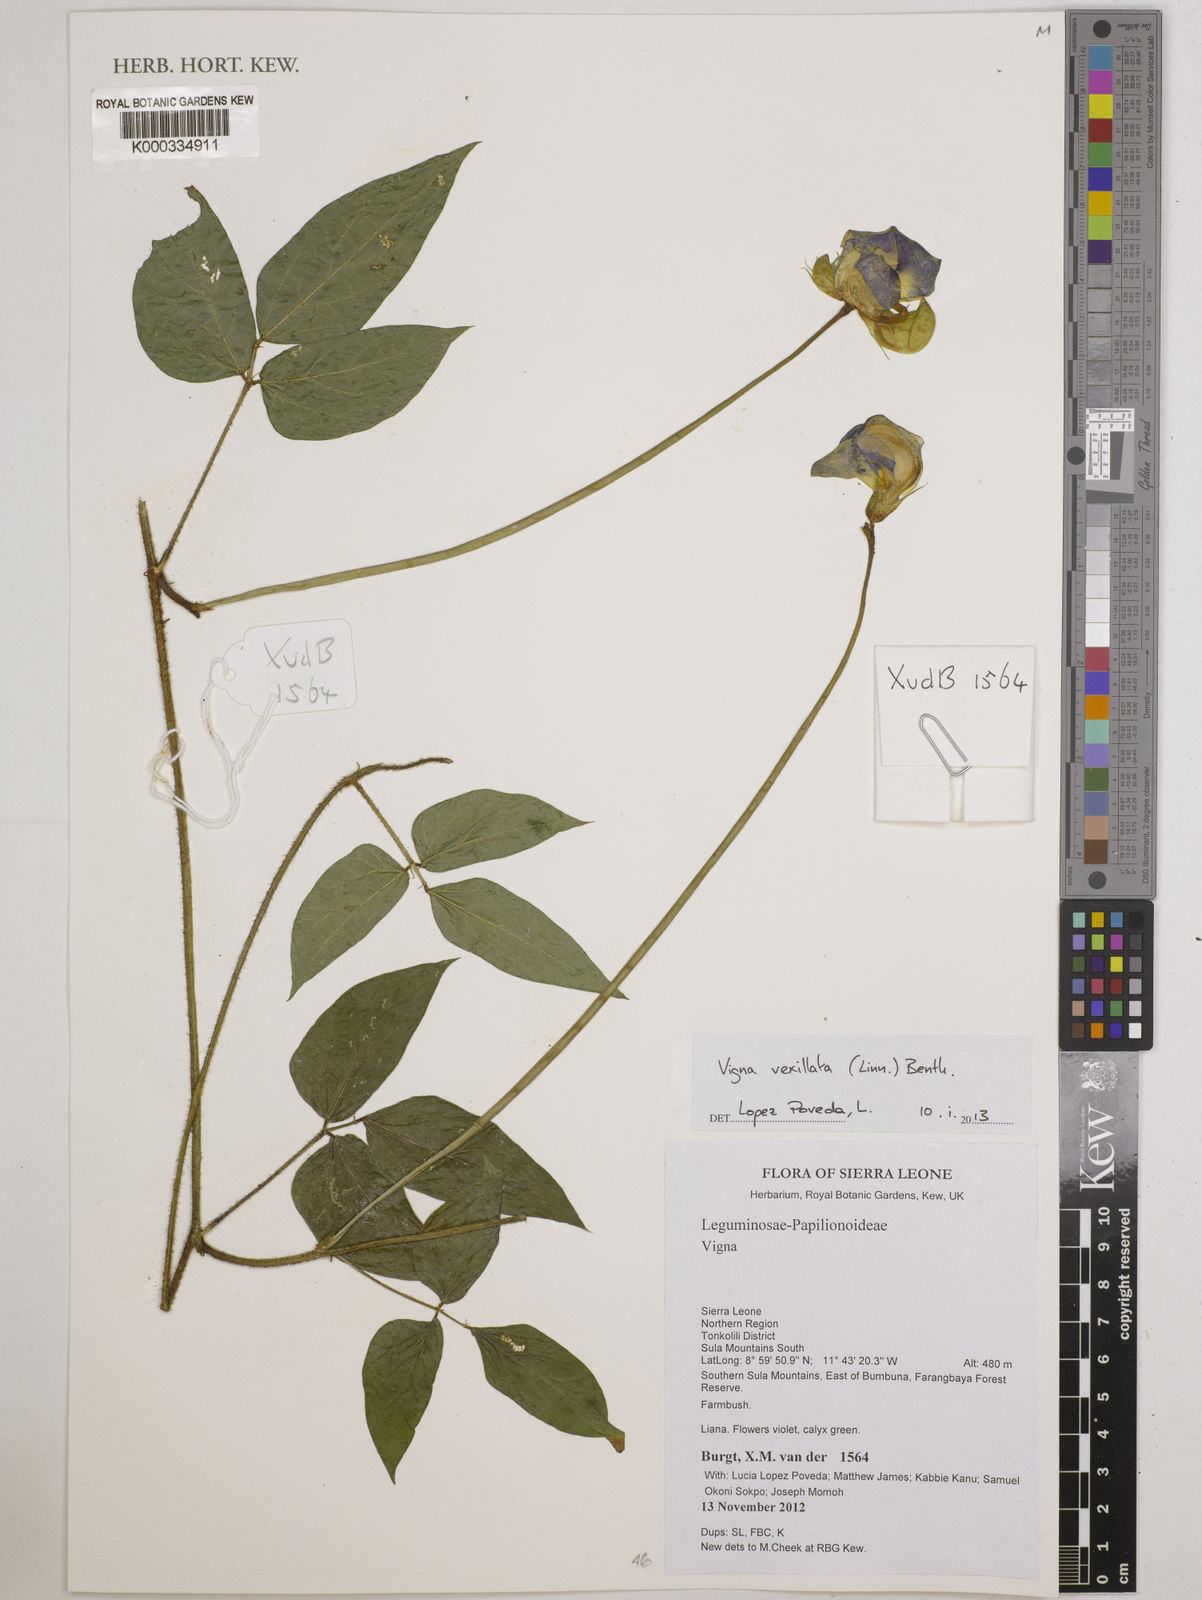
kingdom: Plantae
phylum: Tracheophyta
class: Magnoliopsida
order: Fabales
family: Fabaceae
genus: Vigna
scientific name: Vigna vexillata
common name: Zombi pea
